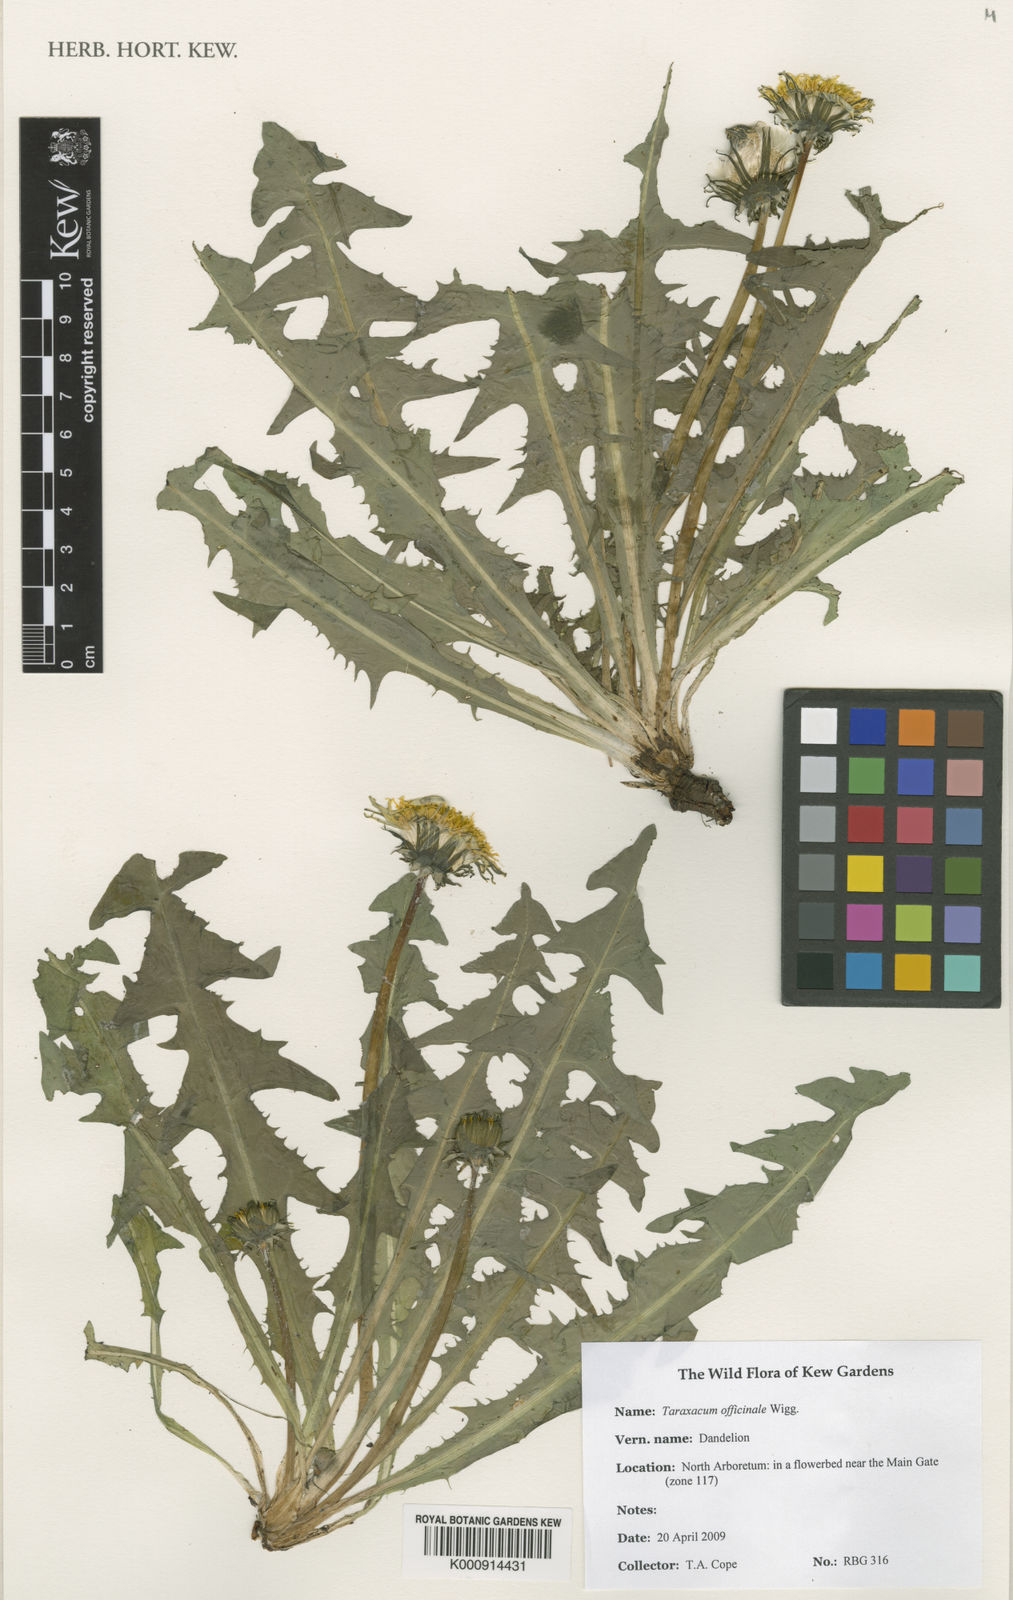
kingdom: Plantae
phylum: Tracheophyta
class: Magnoliopsida
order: Asterales
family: Asteraceae
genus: Taraxacum
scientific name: Taraxacum officinale
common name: Common dandelion
